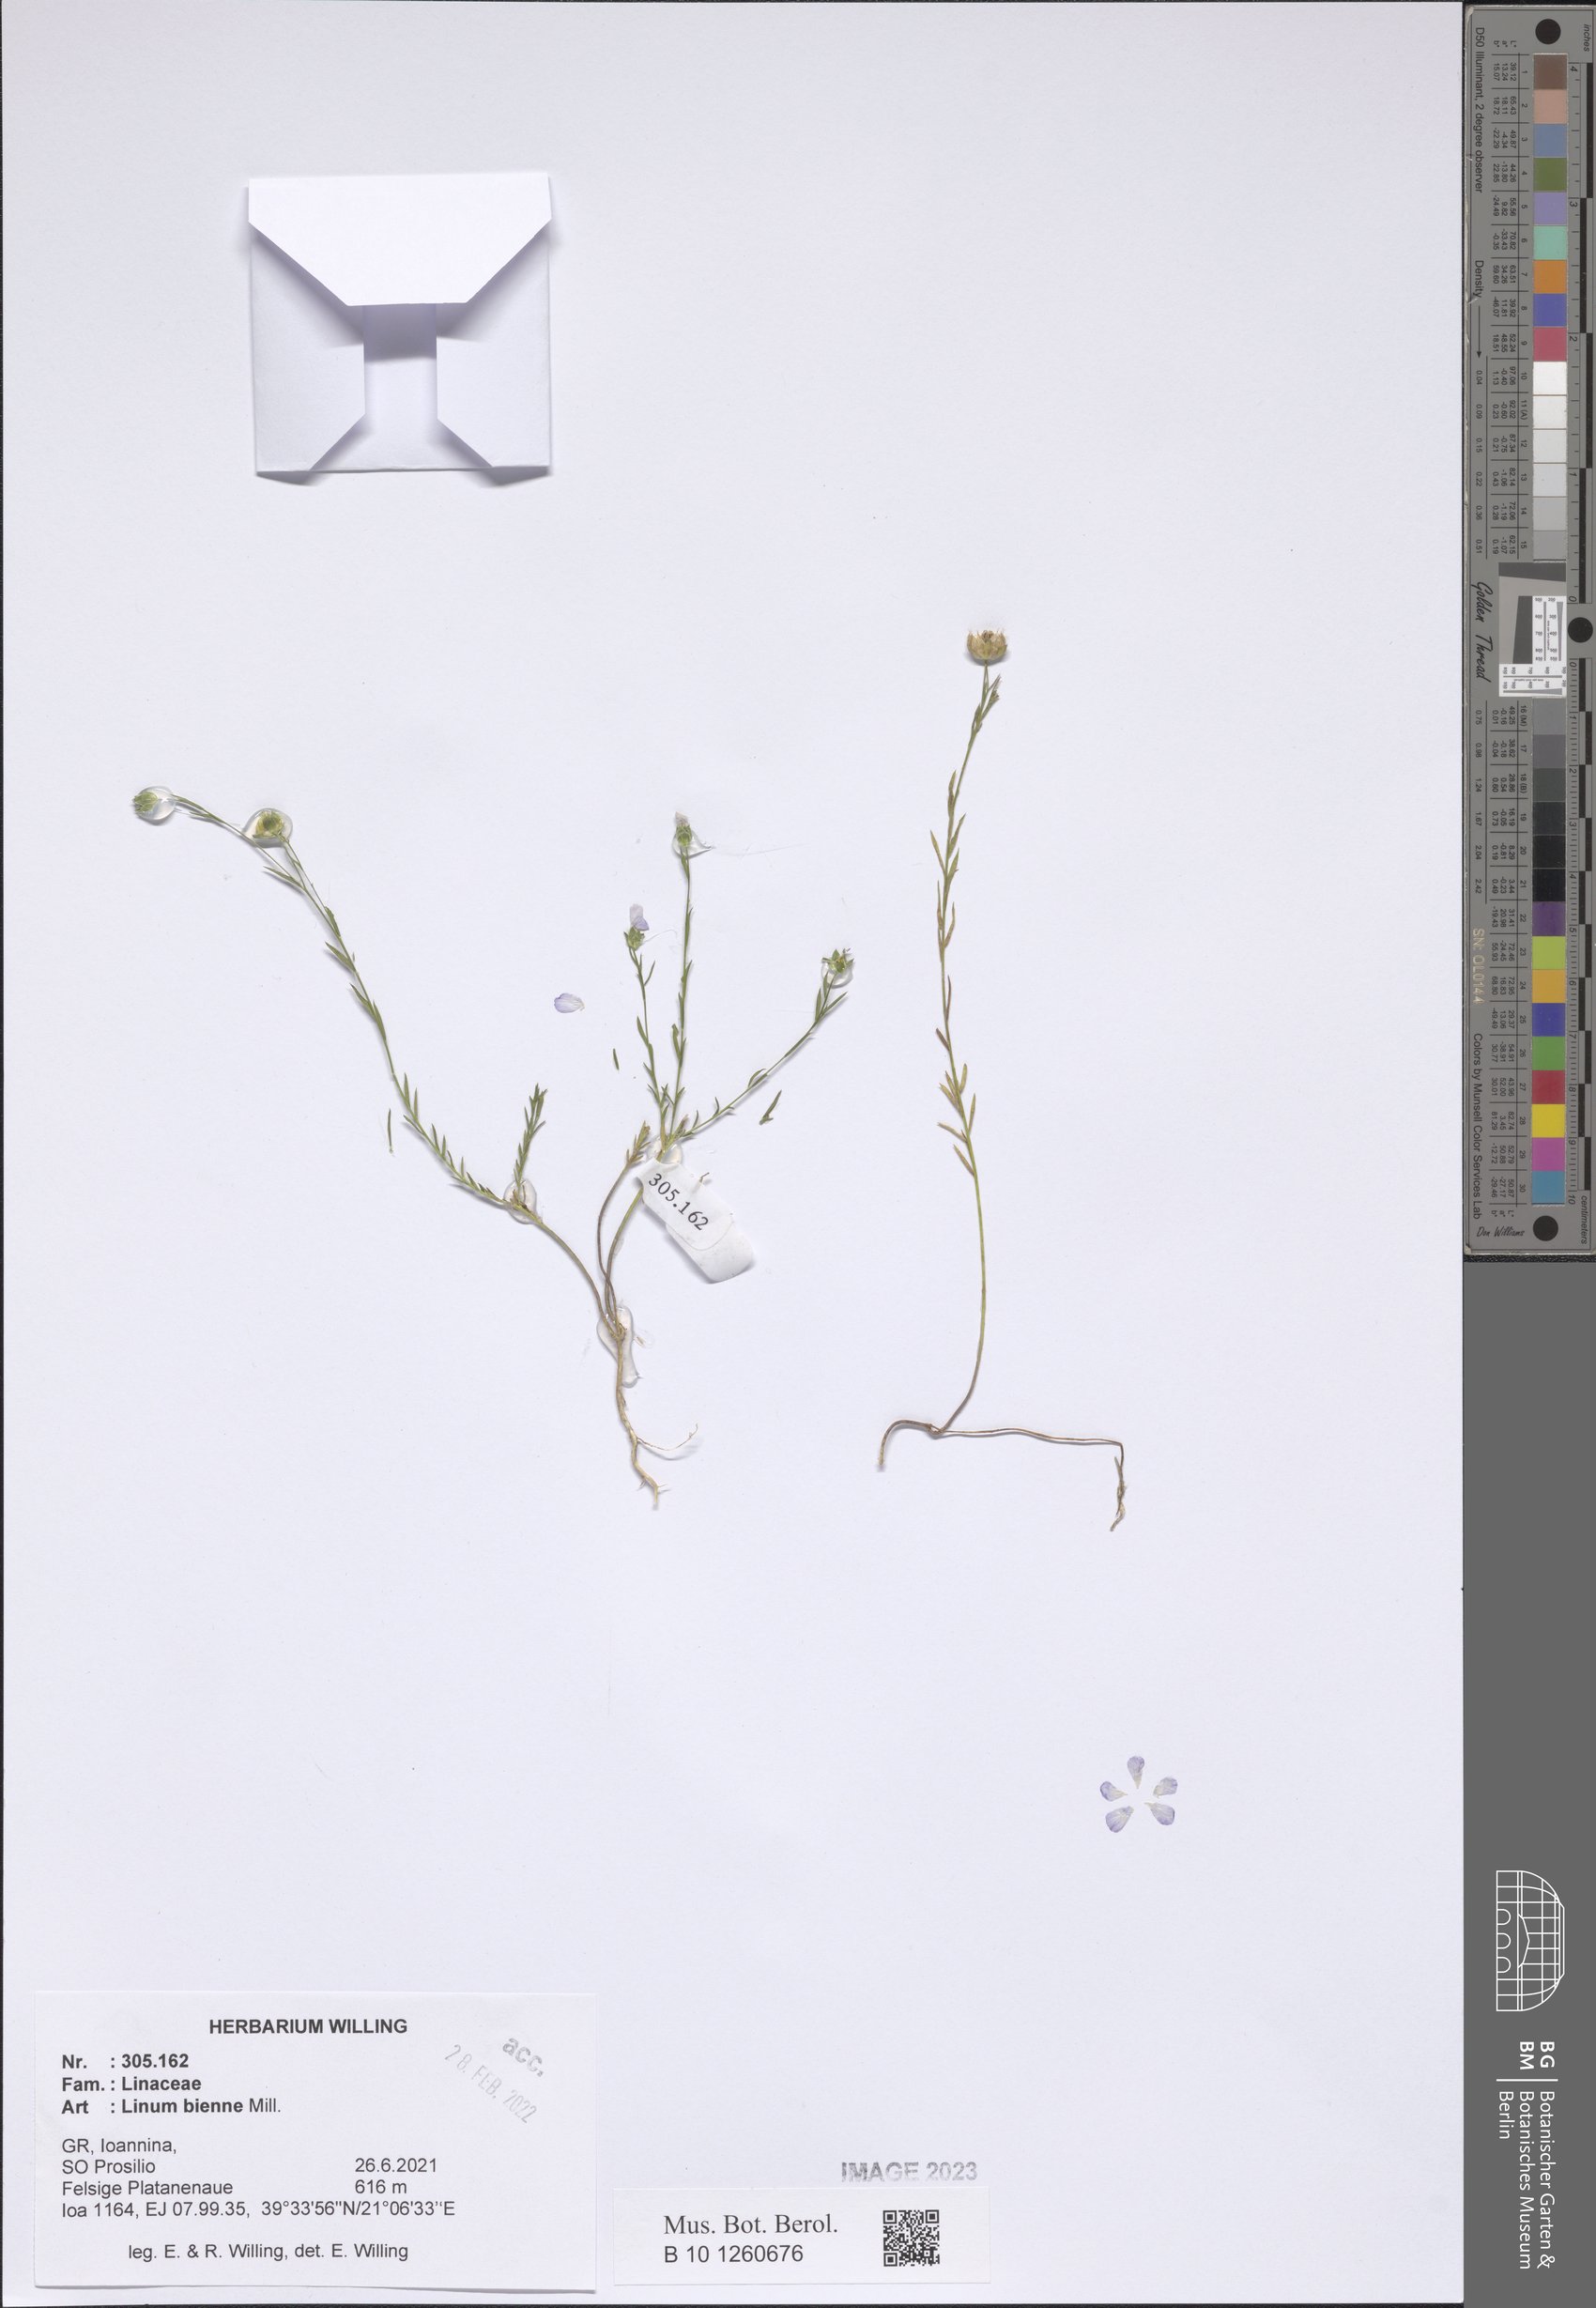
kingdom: Plantae
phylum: Tracheophyta
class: Magnoliopsida
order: Malpighiales
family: Linaceae
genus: Linum
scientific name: Linum bienne
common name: Pale flax
